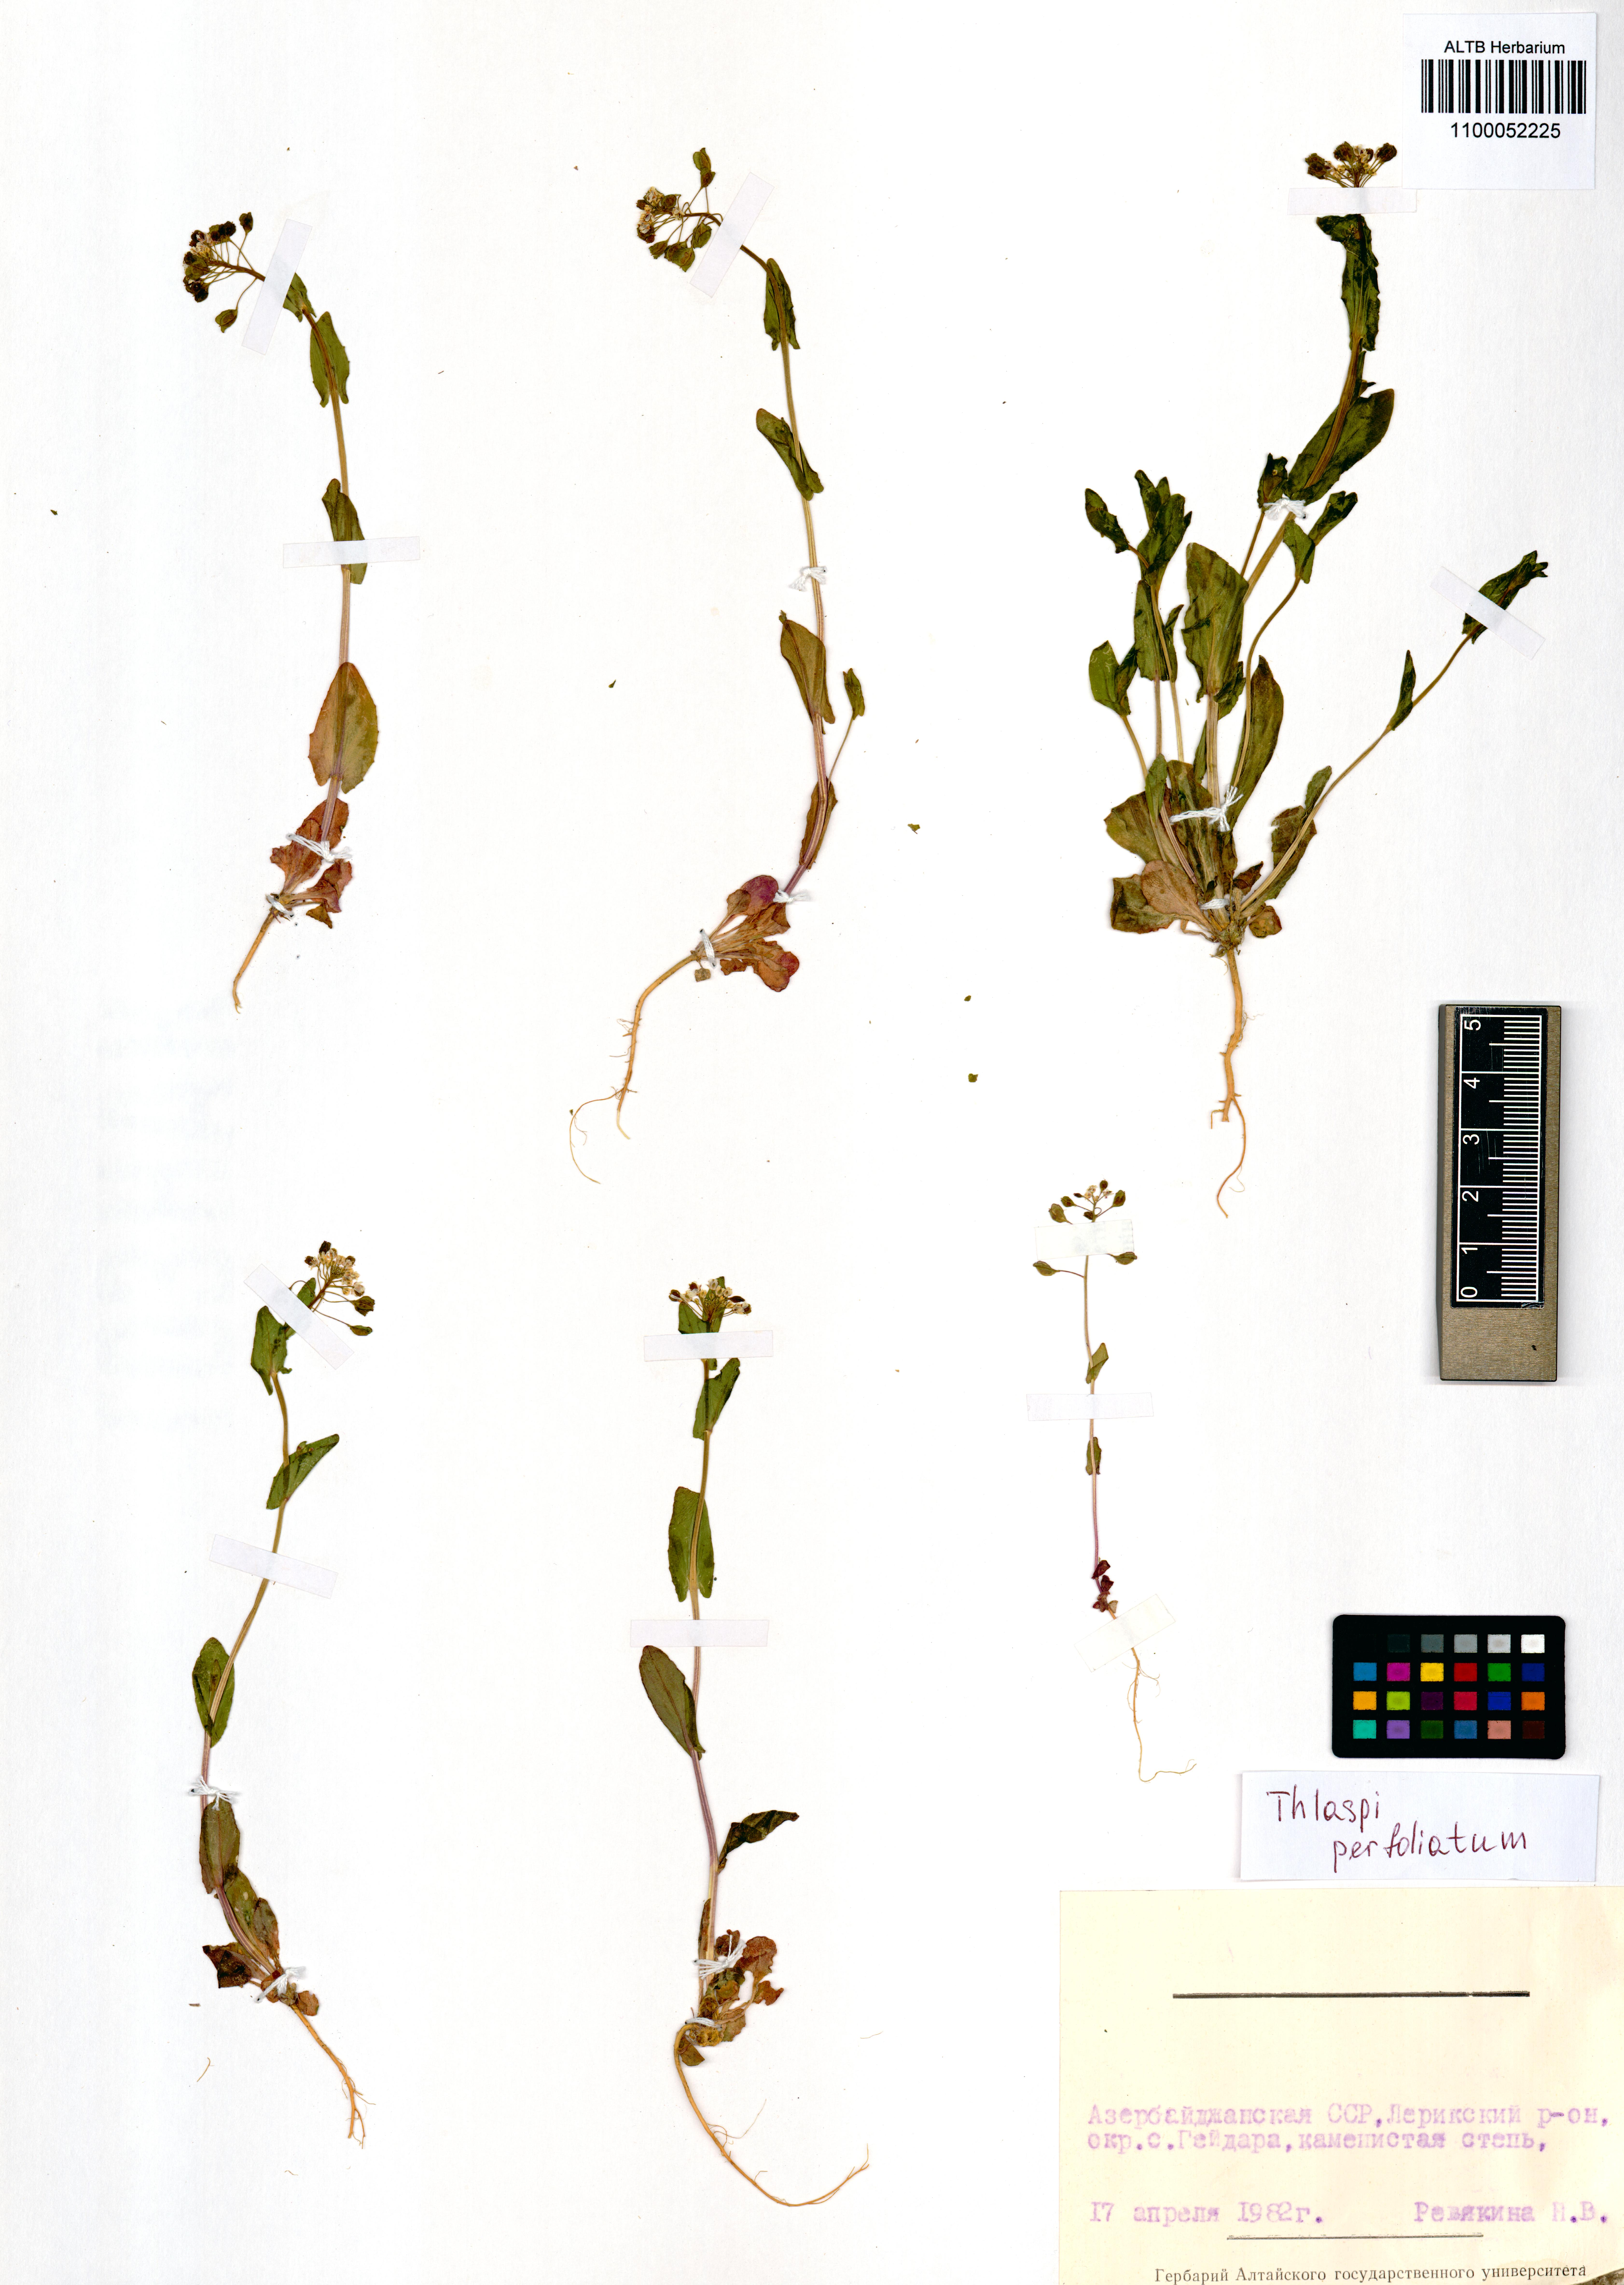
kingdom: Plantae
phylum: Tracheophyta
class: Magnoliopsida
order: Brassicales
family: Brassicaceae
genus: Noccaea
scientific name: Noccaea perfoliata
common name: Perfoliate pennycress
